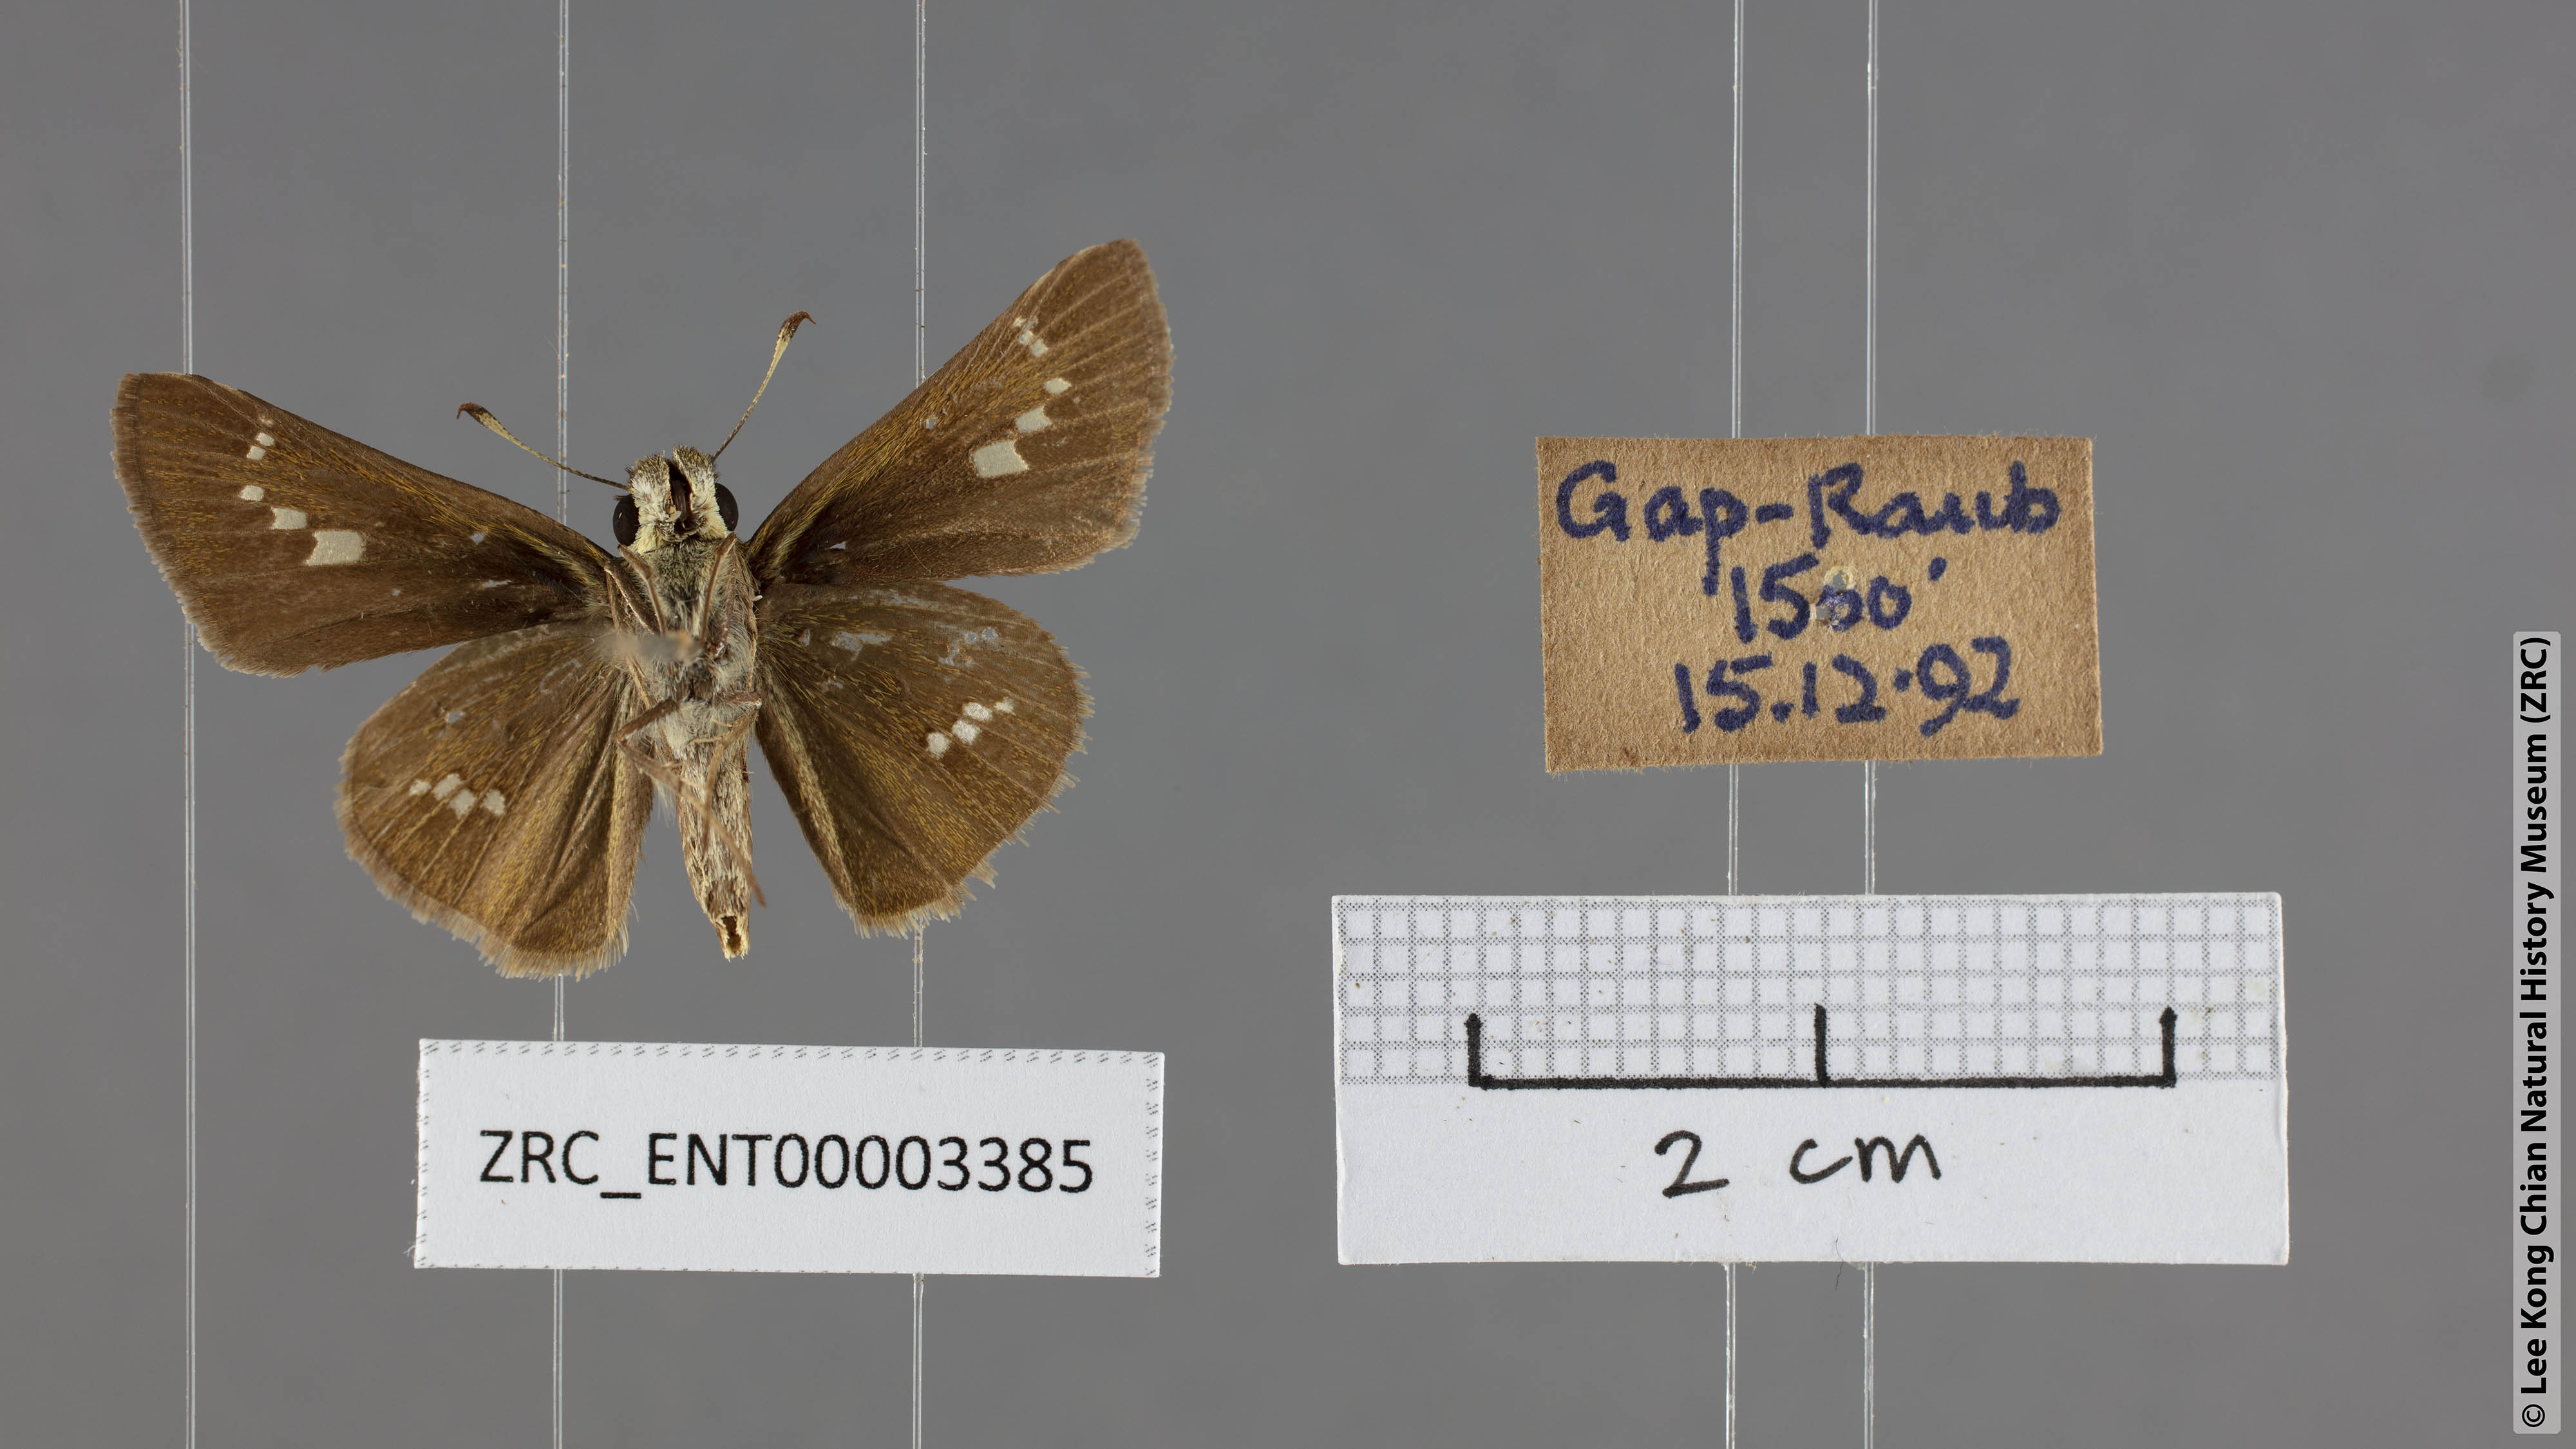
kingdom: Animalia
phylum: Arthropoda
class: Insecta
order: Lepidoptera
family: Hesperiidae
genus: Parnara
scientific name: Parnara apostata
